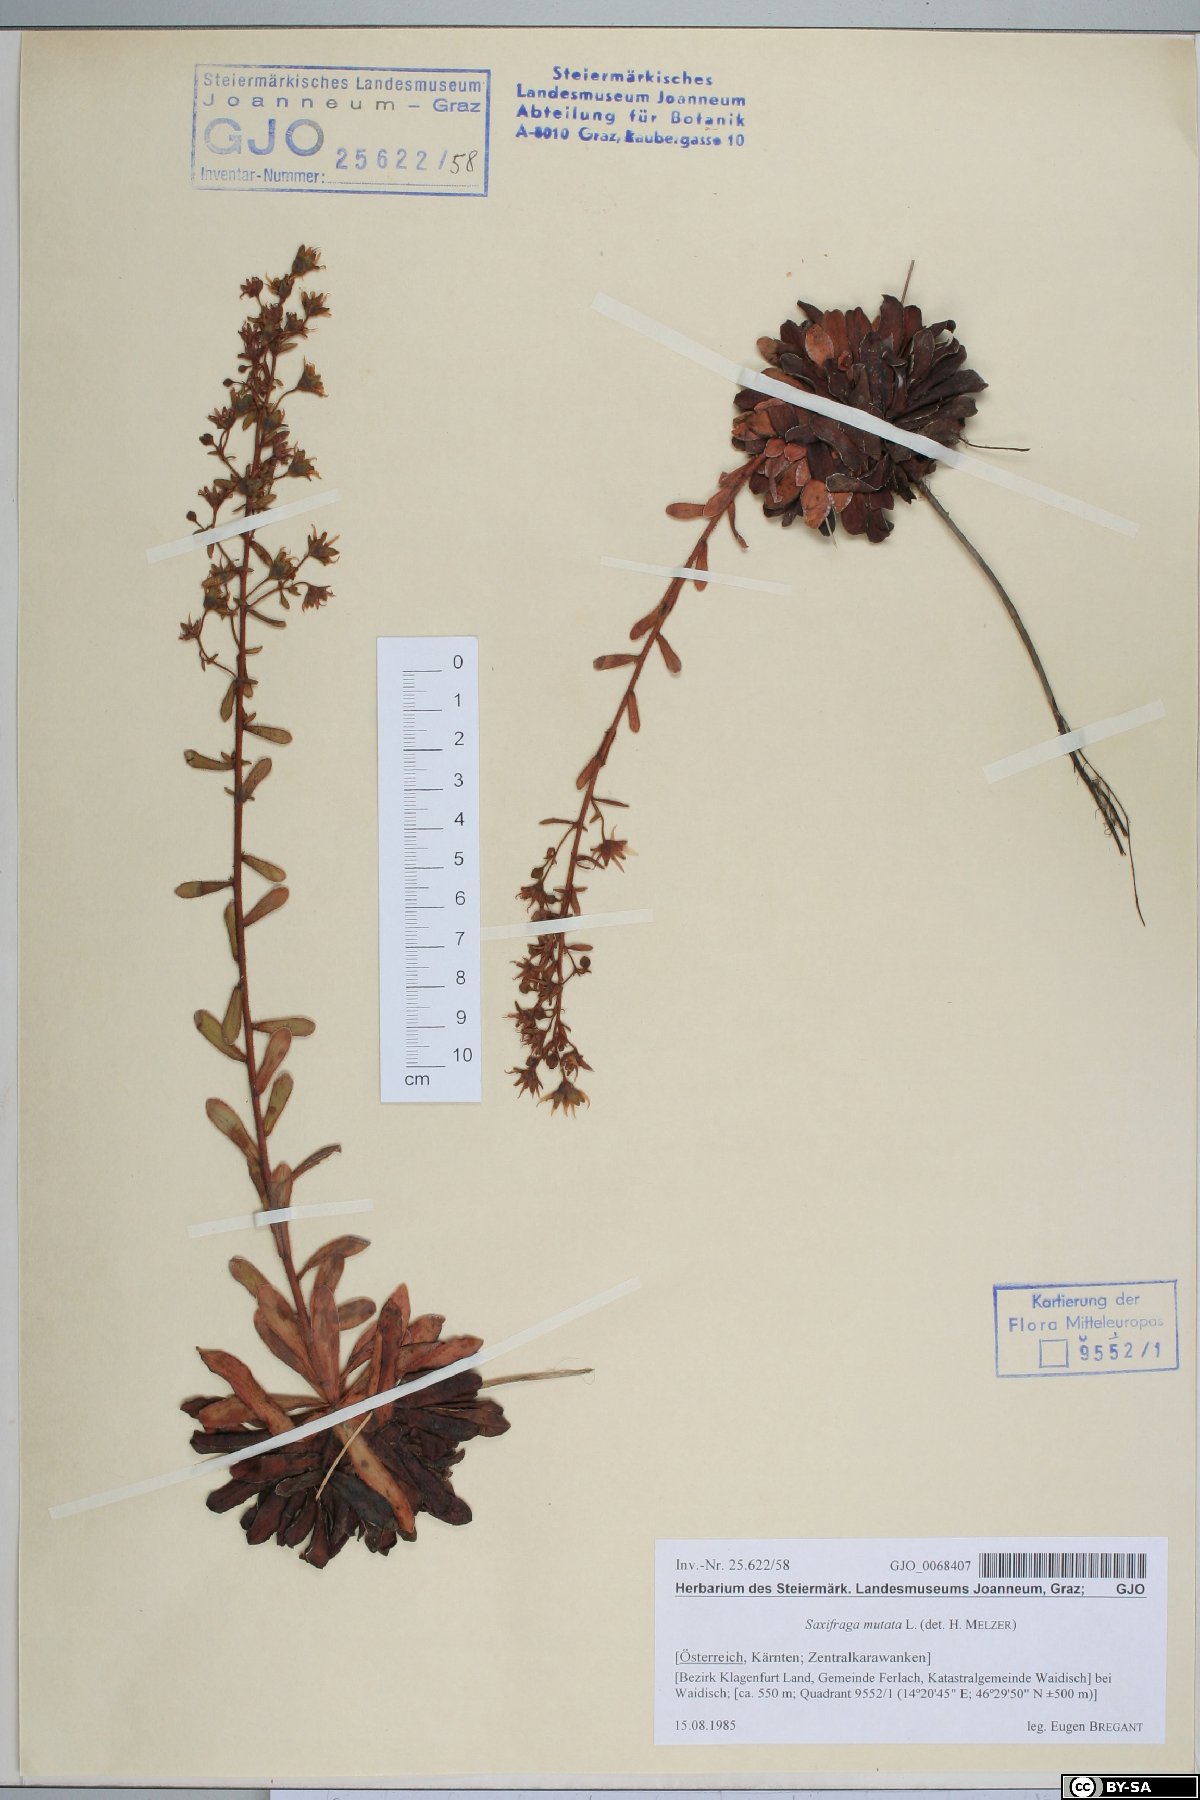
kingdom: Plantae
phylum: Tracheophyta
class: Magnoliopsida
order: Saxifragales
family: Saxifragaceae
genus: Saxifraga
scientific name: Saxifraga mutata
